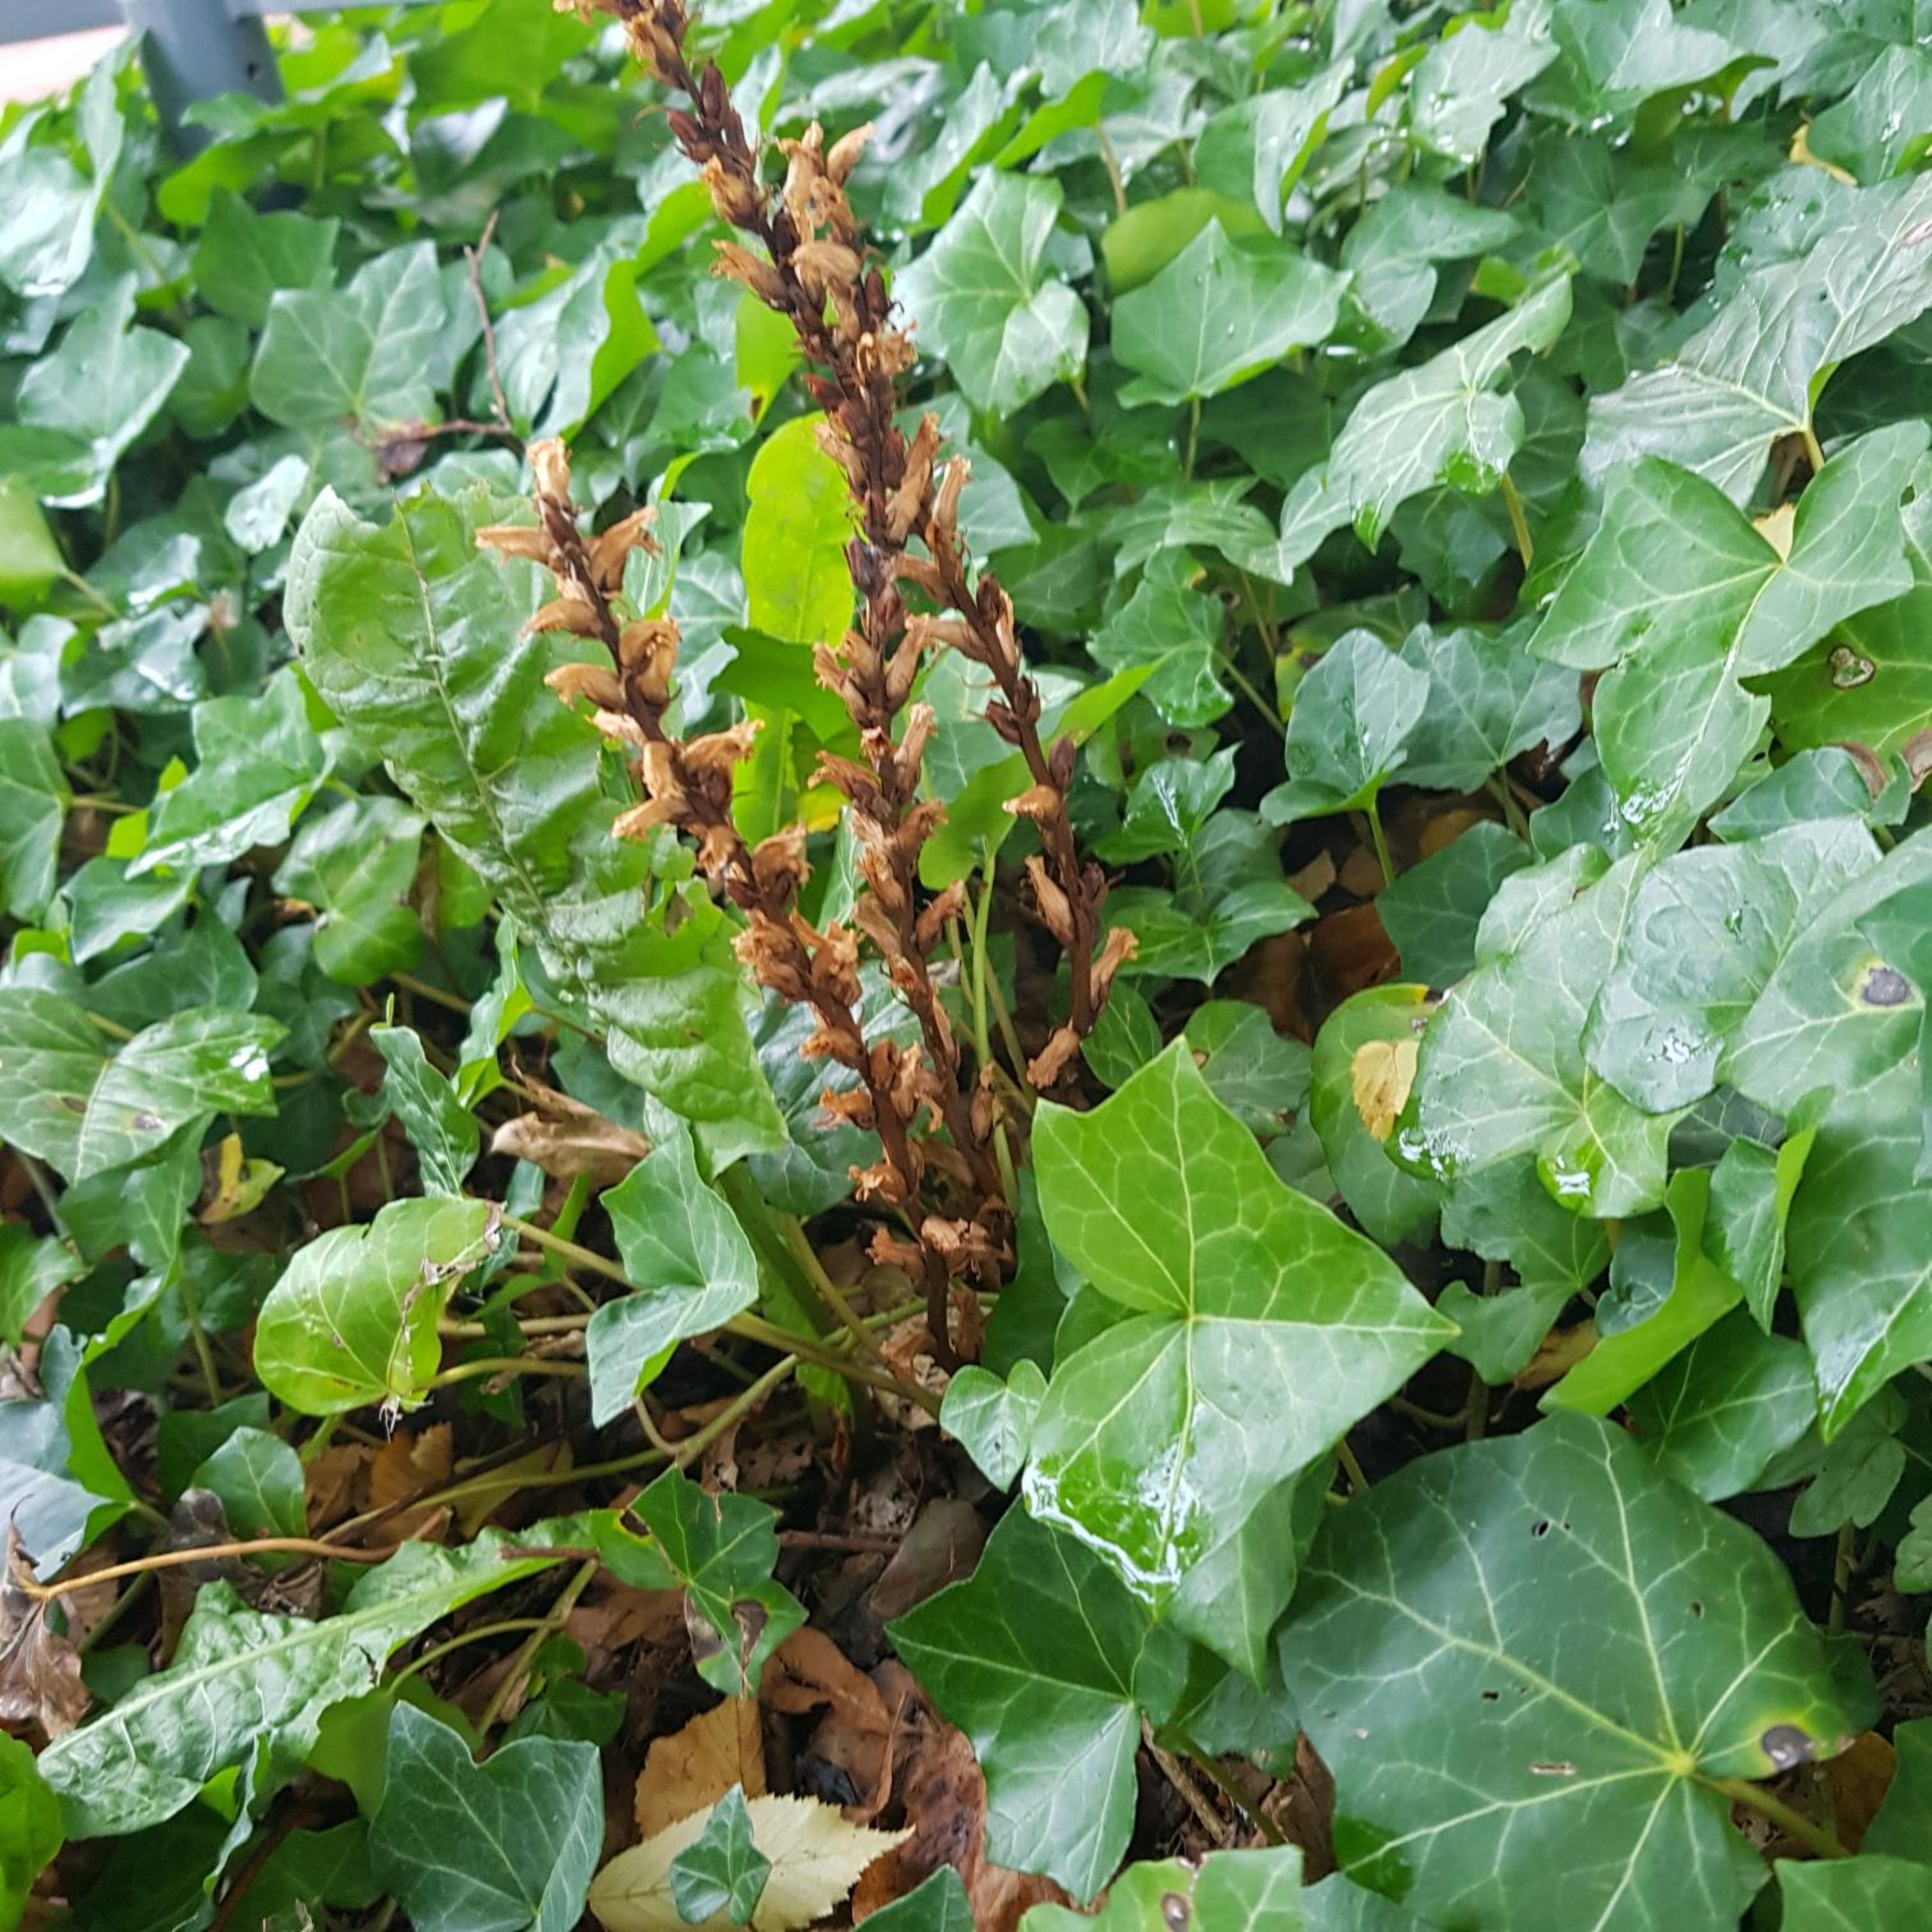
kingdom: Plantae
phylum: Tracheophyta
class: Magnoliopsida
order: Lamiales
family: Orobanchaceae
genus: Orobanche
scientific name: Orobanche hederae
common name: Vedbend-gyvelkvæler
